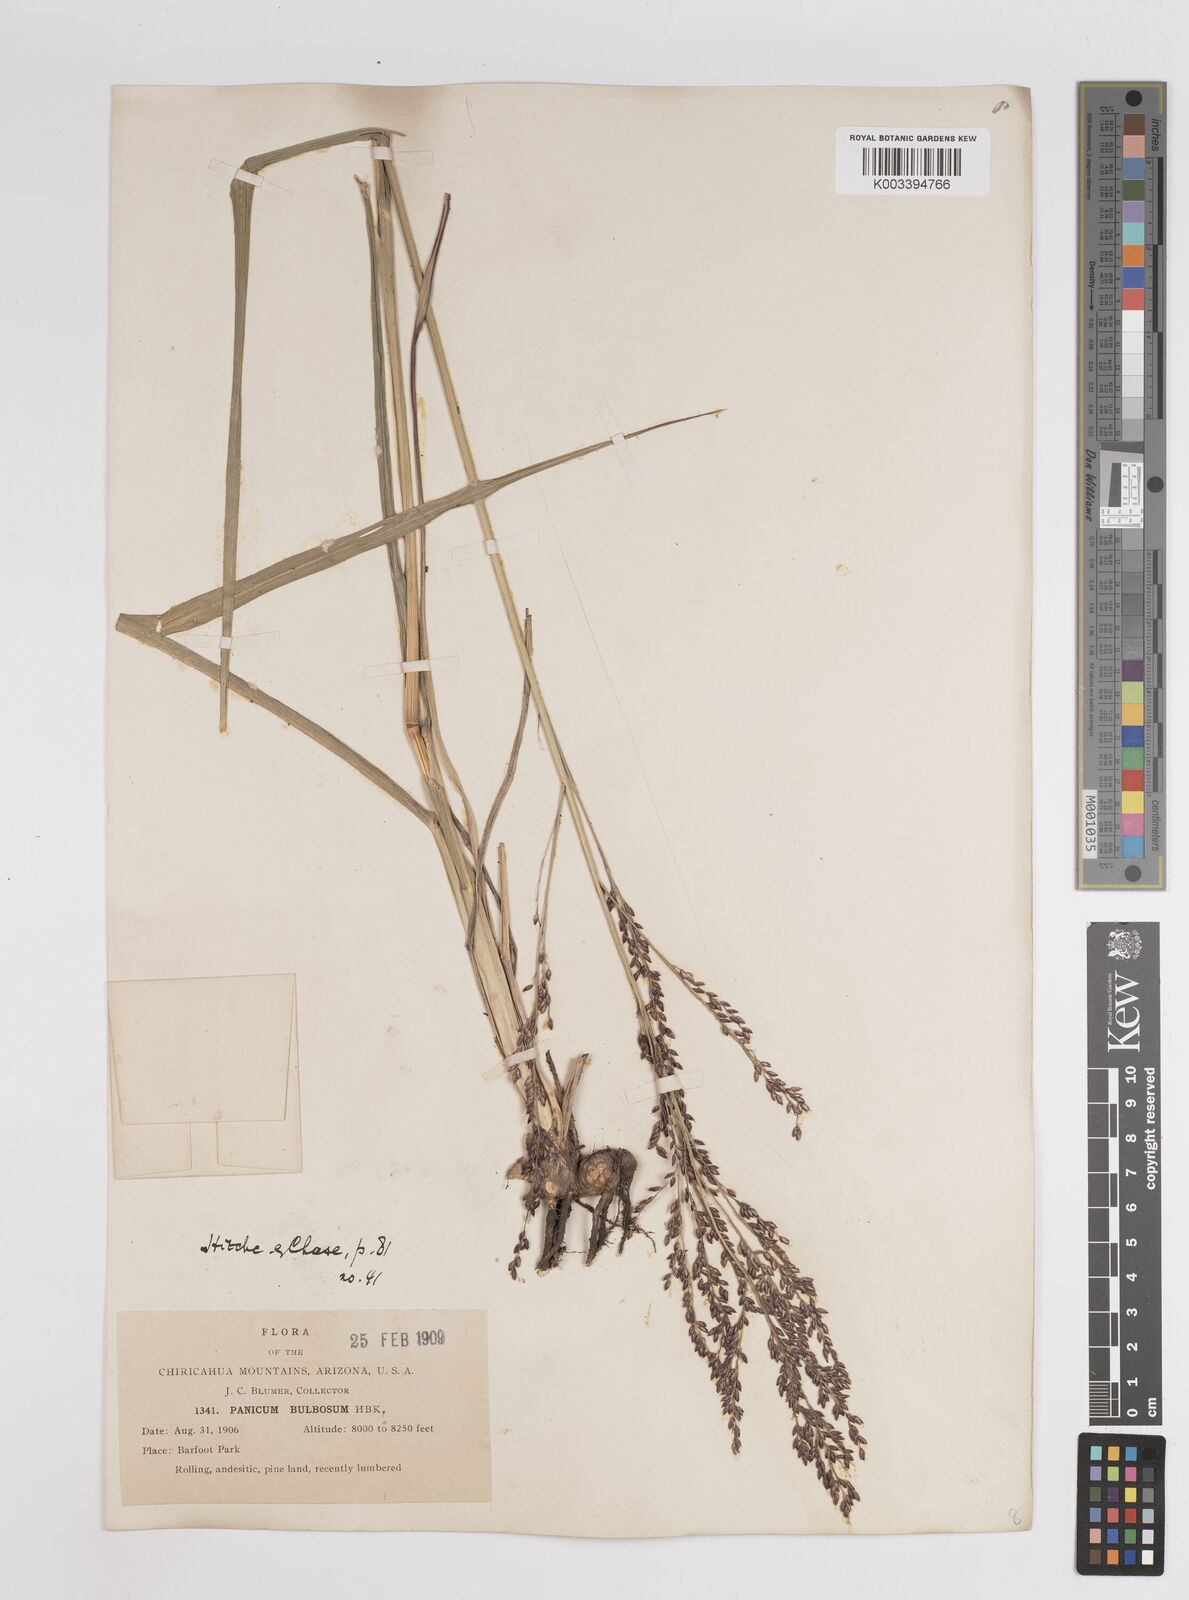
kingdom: Plantae
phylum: Tracheophyta
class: Liliopsida
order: Poales
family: Poaceae
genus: Zuloagaea
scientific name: Zuloagaea bulbosa
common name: Canyon panic grass
